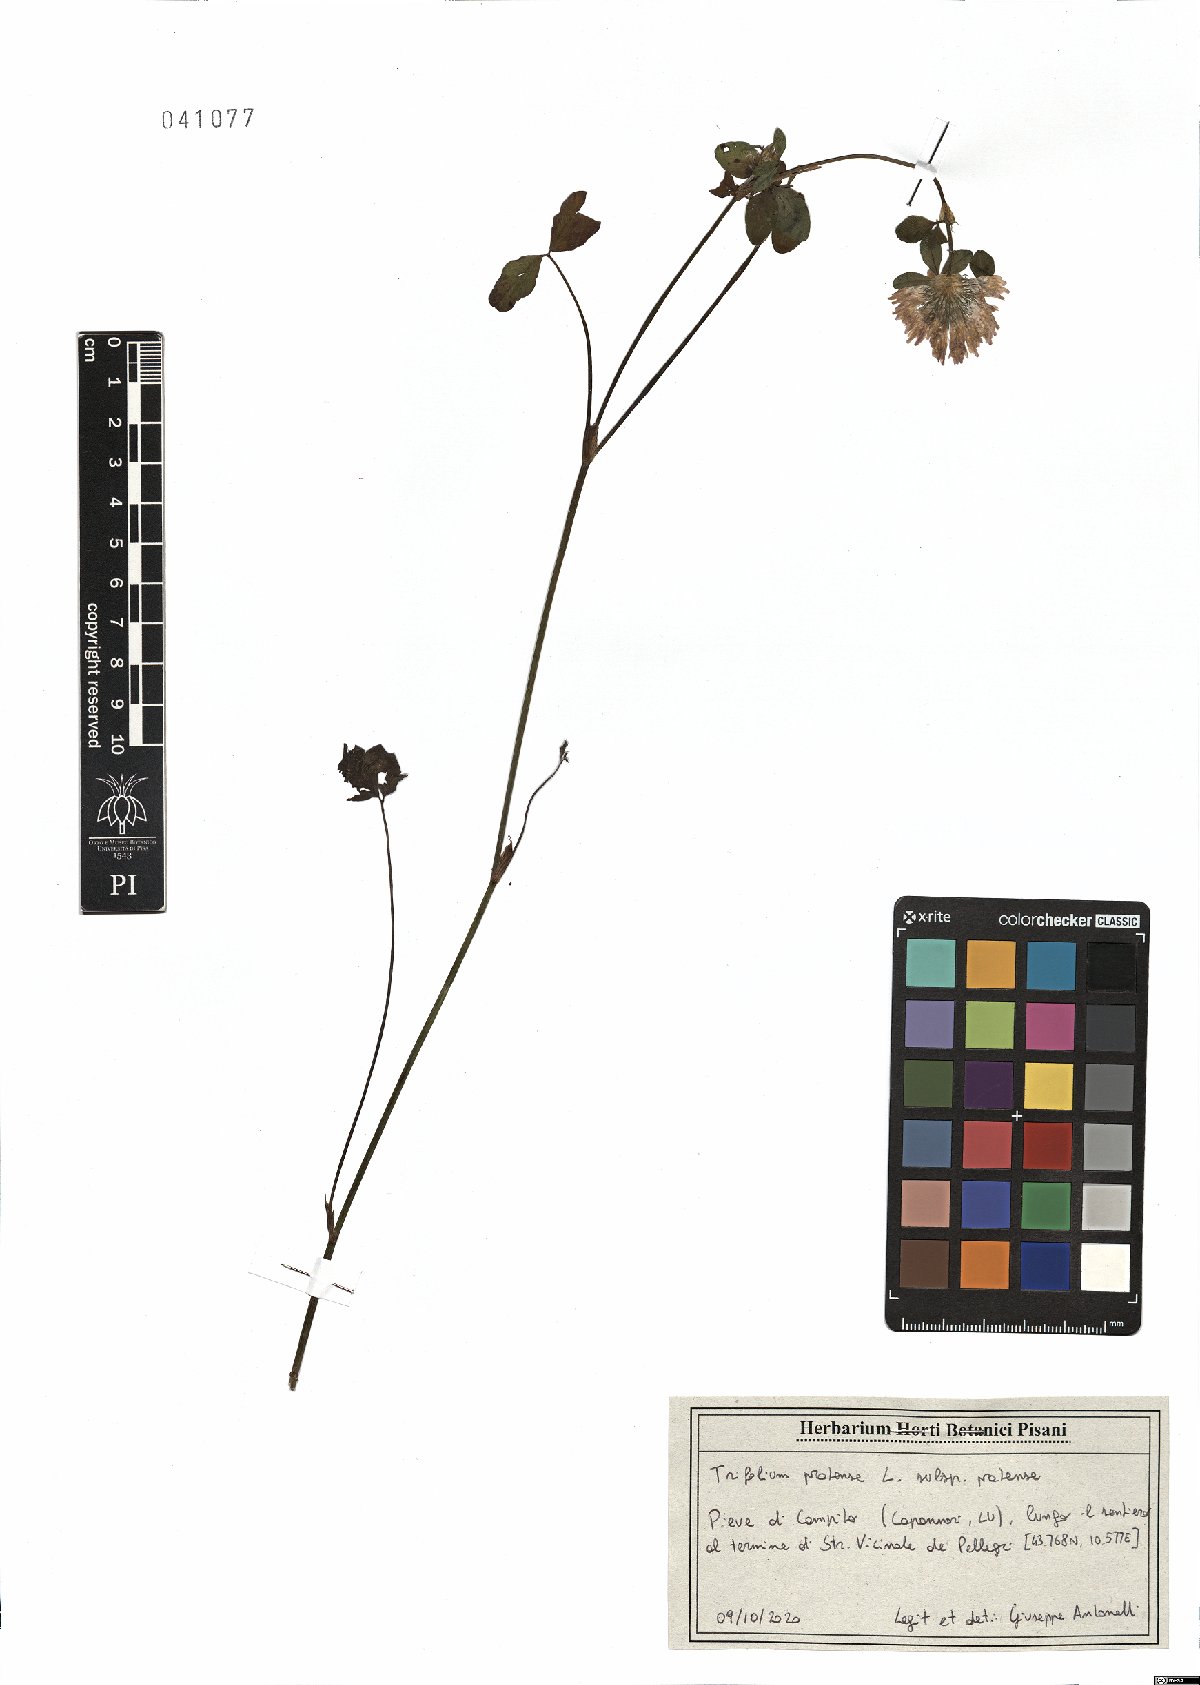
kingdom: Plantae
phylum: Tracheophyta
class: Magnoliopsida
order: Fabales
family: Fabaceae
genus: Trifolium
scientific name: Trifolium pratense
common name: Red clover
